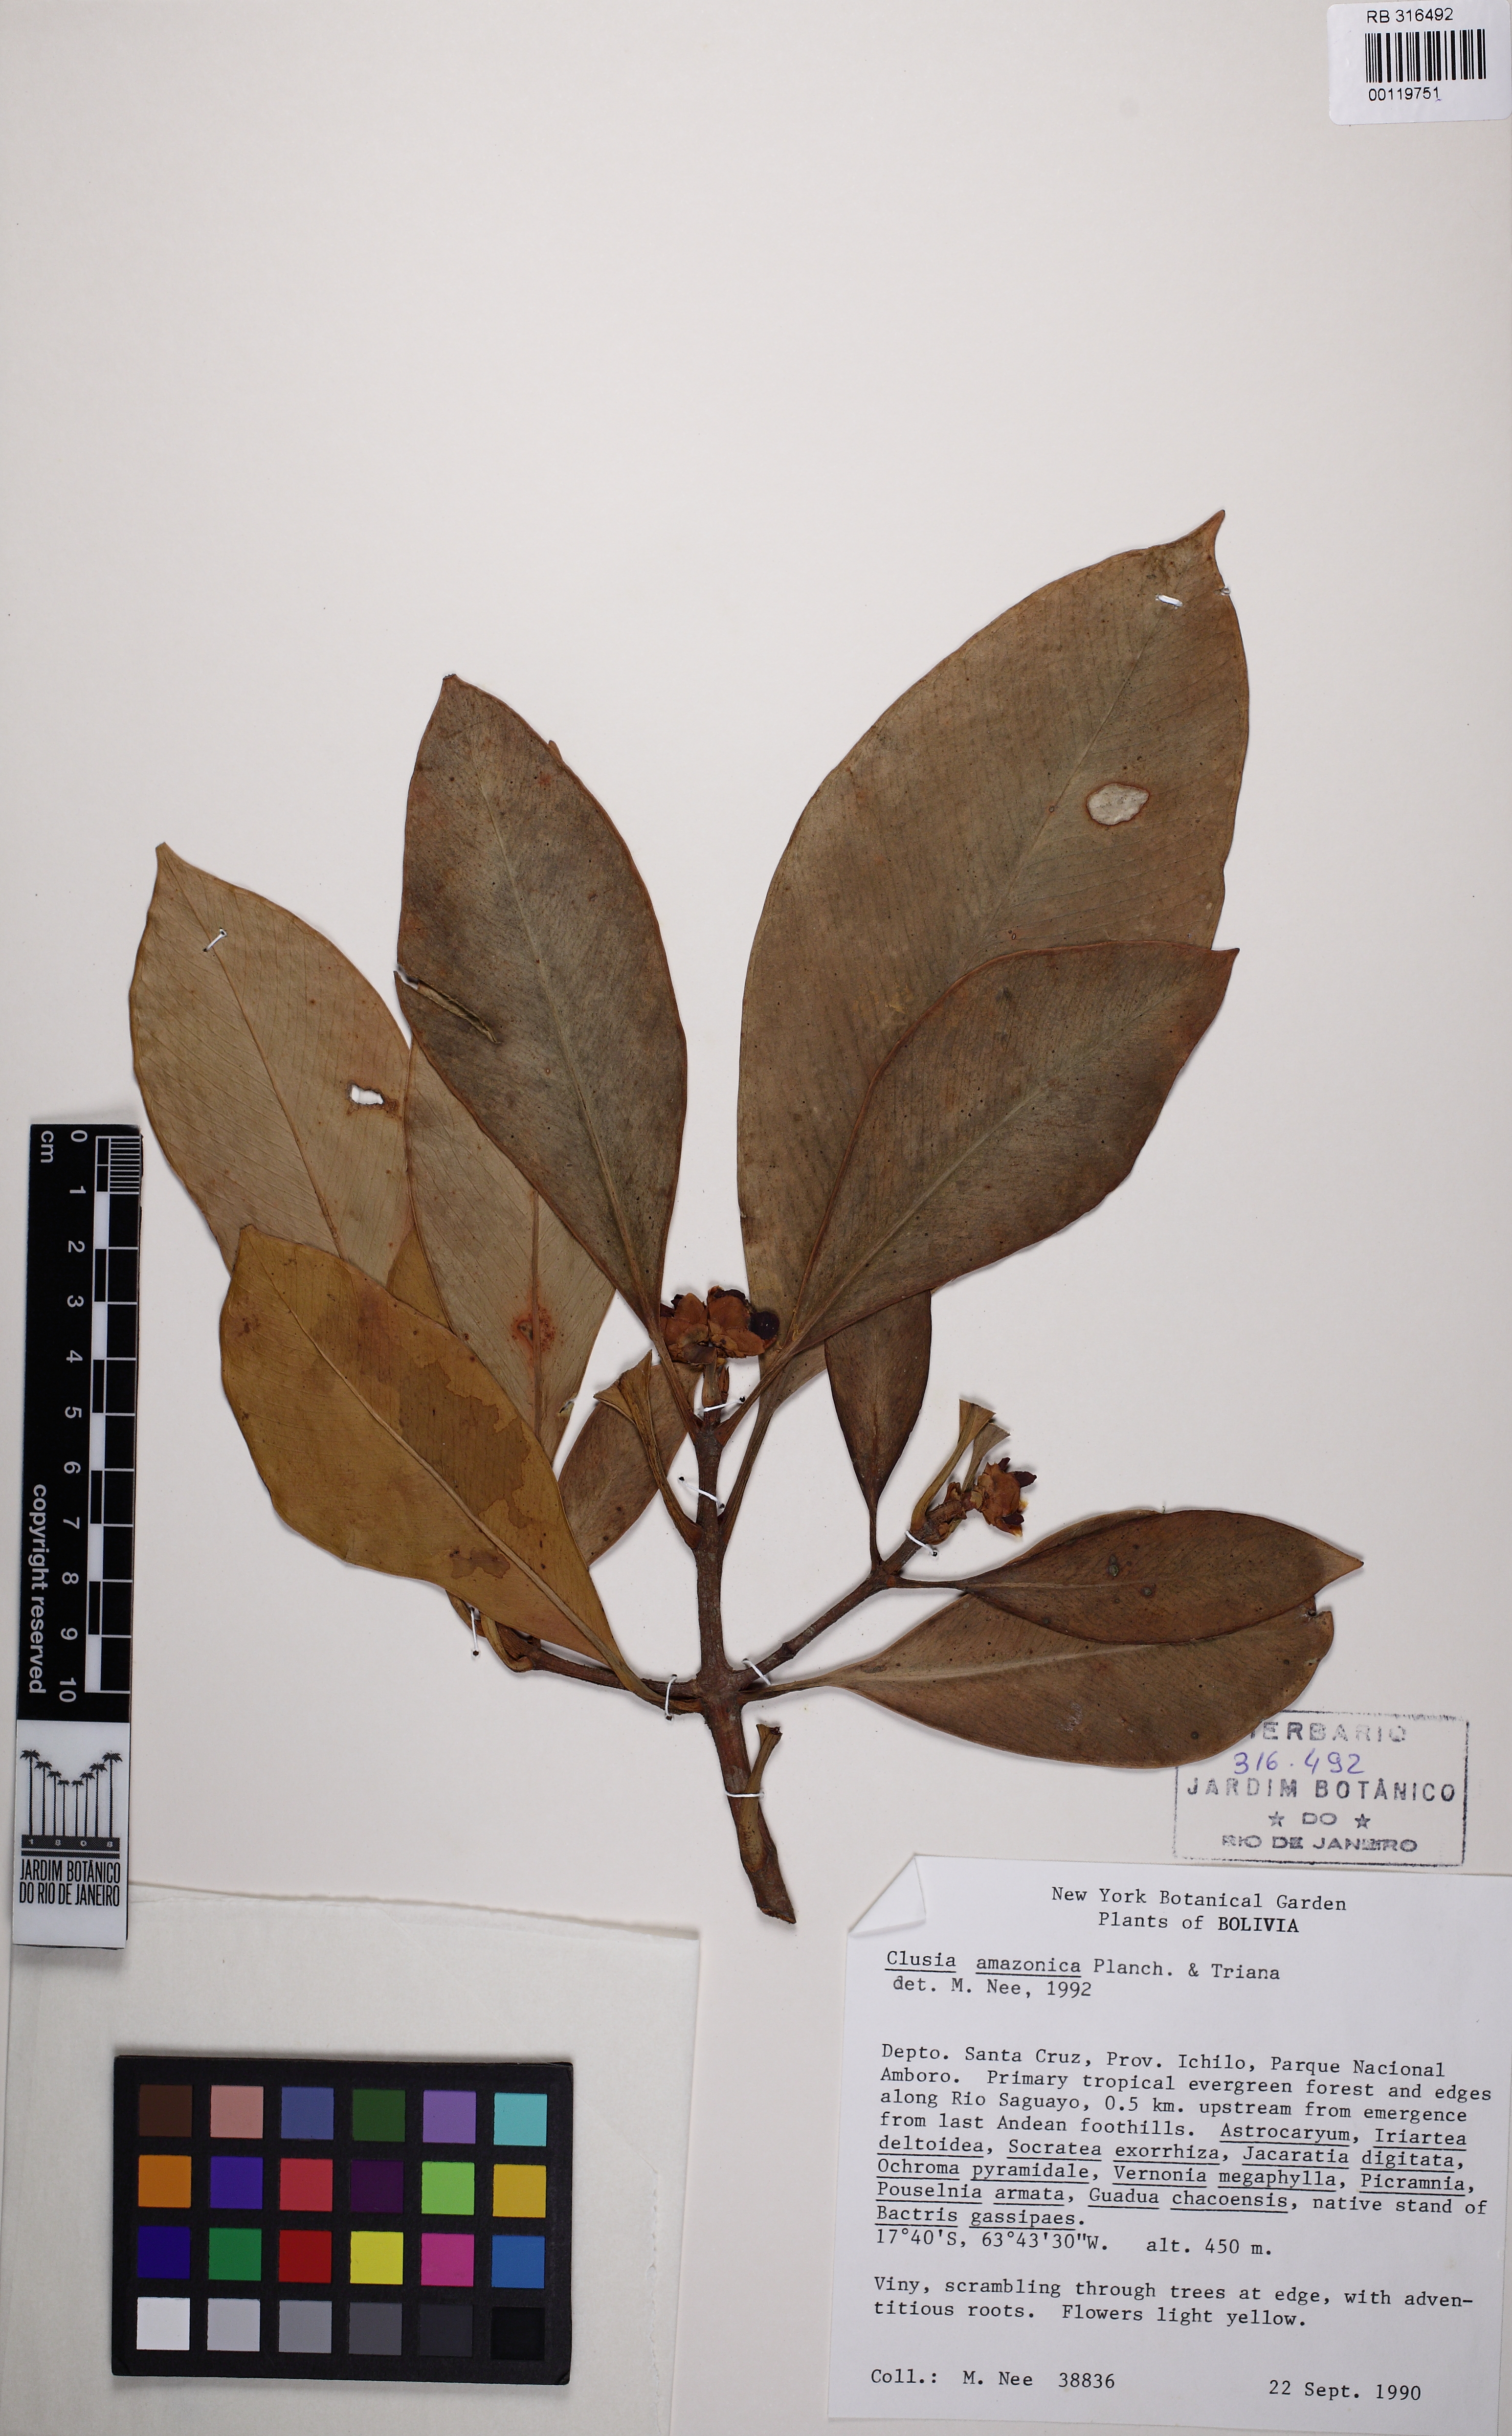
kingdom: Plantae
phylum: Tracheophyta
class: Magnoliopsida
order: Malpighiales
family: Clusiaceae
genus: Clusia
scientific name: Clusia amazonica
